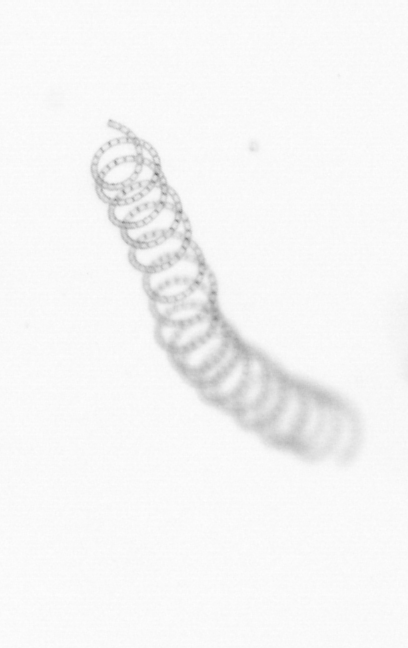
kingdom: Chromista
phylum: Ochrophyta
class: Bacillariophyceae
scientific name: Bacillariophyceae
